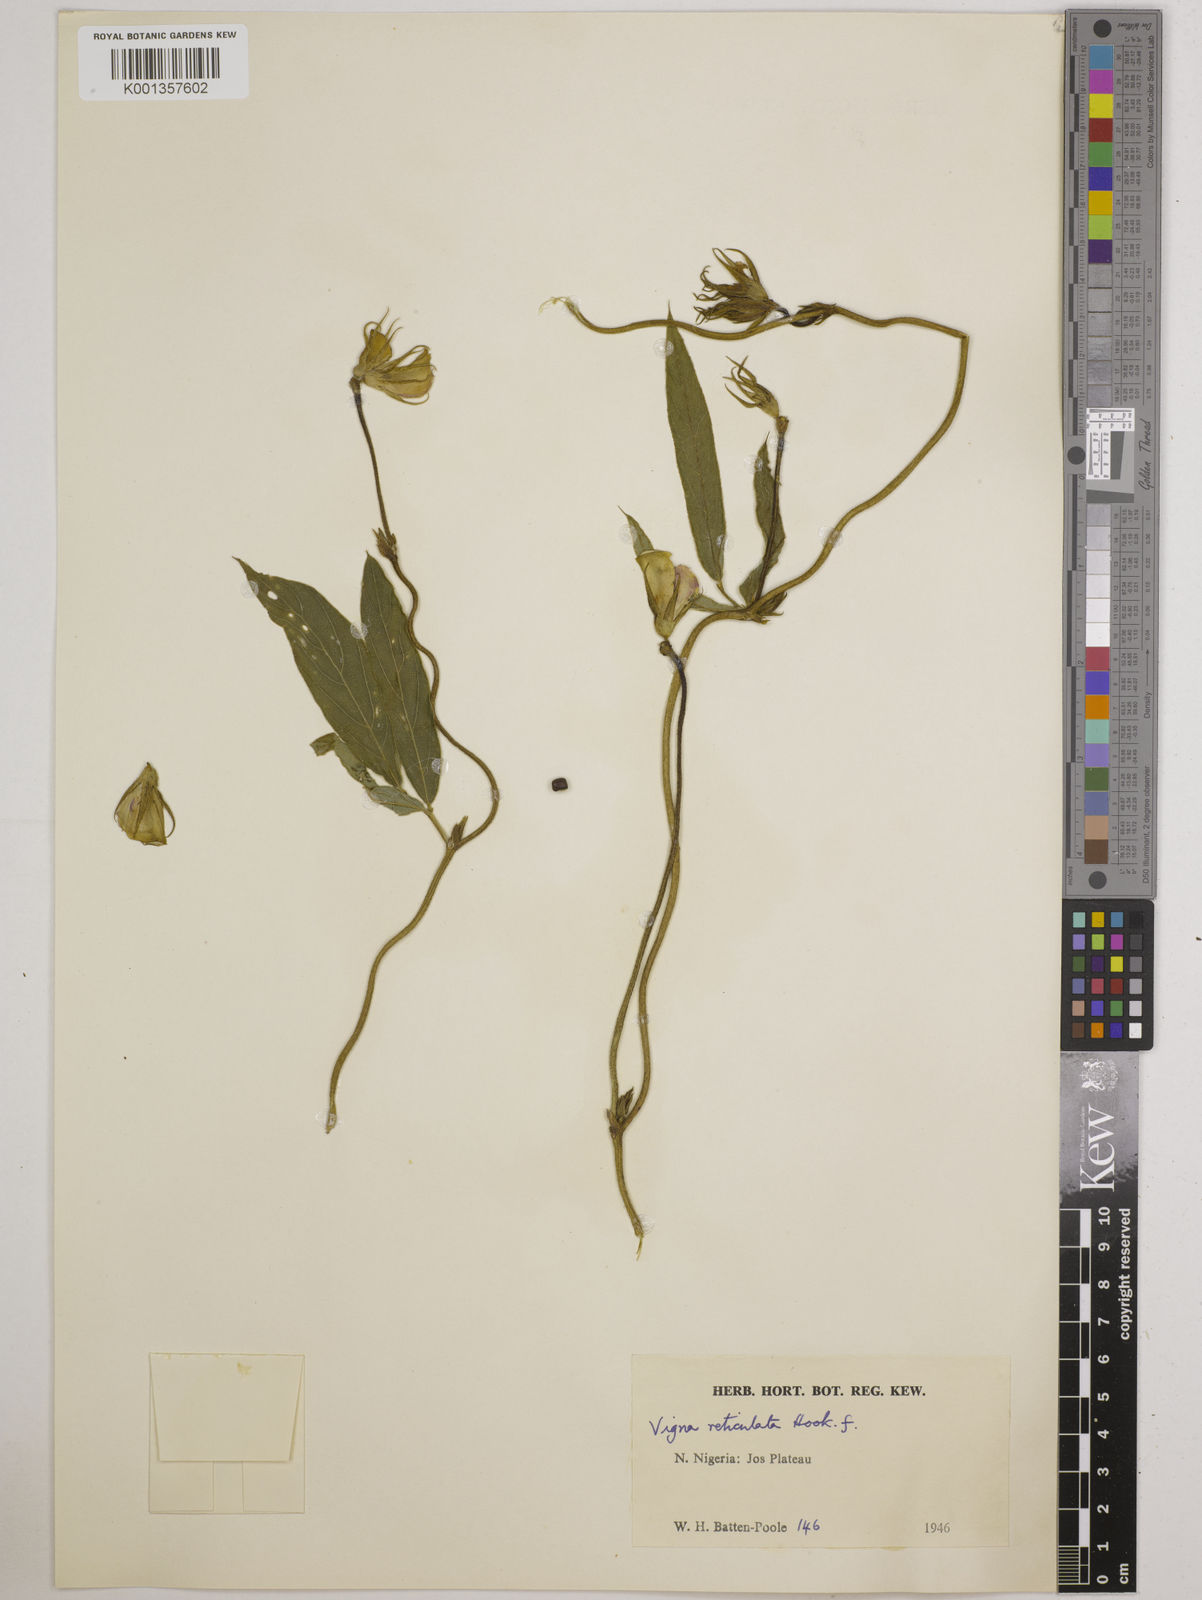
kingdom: Plantae
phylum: Tracheophyta
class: Magnoliopsida
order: Fabales
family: Fabaceae
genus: Vigna
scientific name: Vigna reticulata
